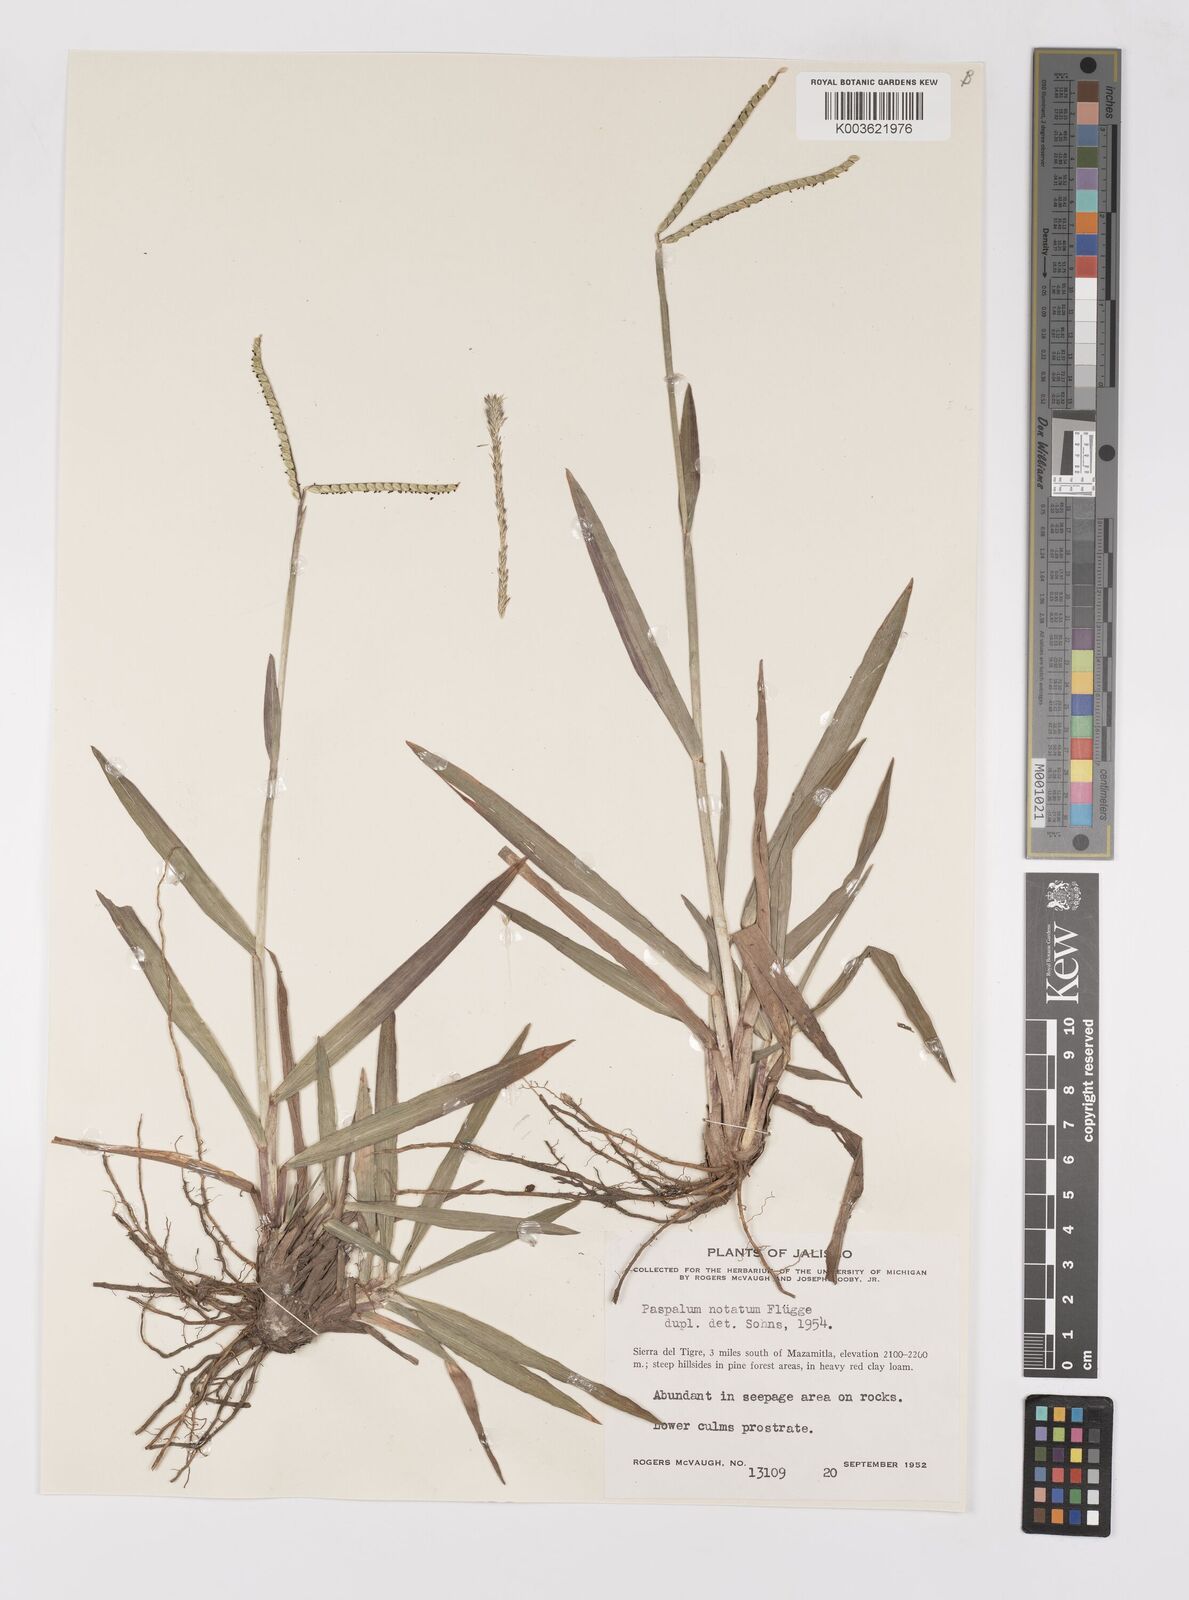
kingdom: Plantae
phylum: Tracheophyta
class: Liliopsida
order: Poales
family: Poaceae
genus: Paspalum
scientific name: Paspalum notatum
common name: Bahiagrass
